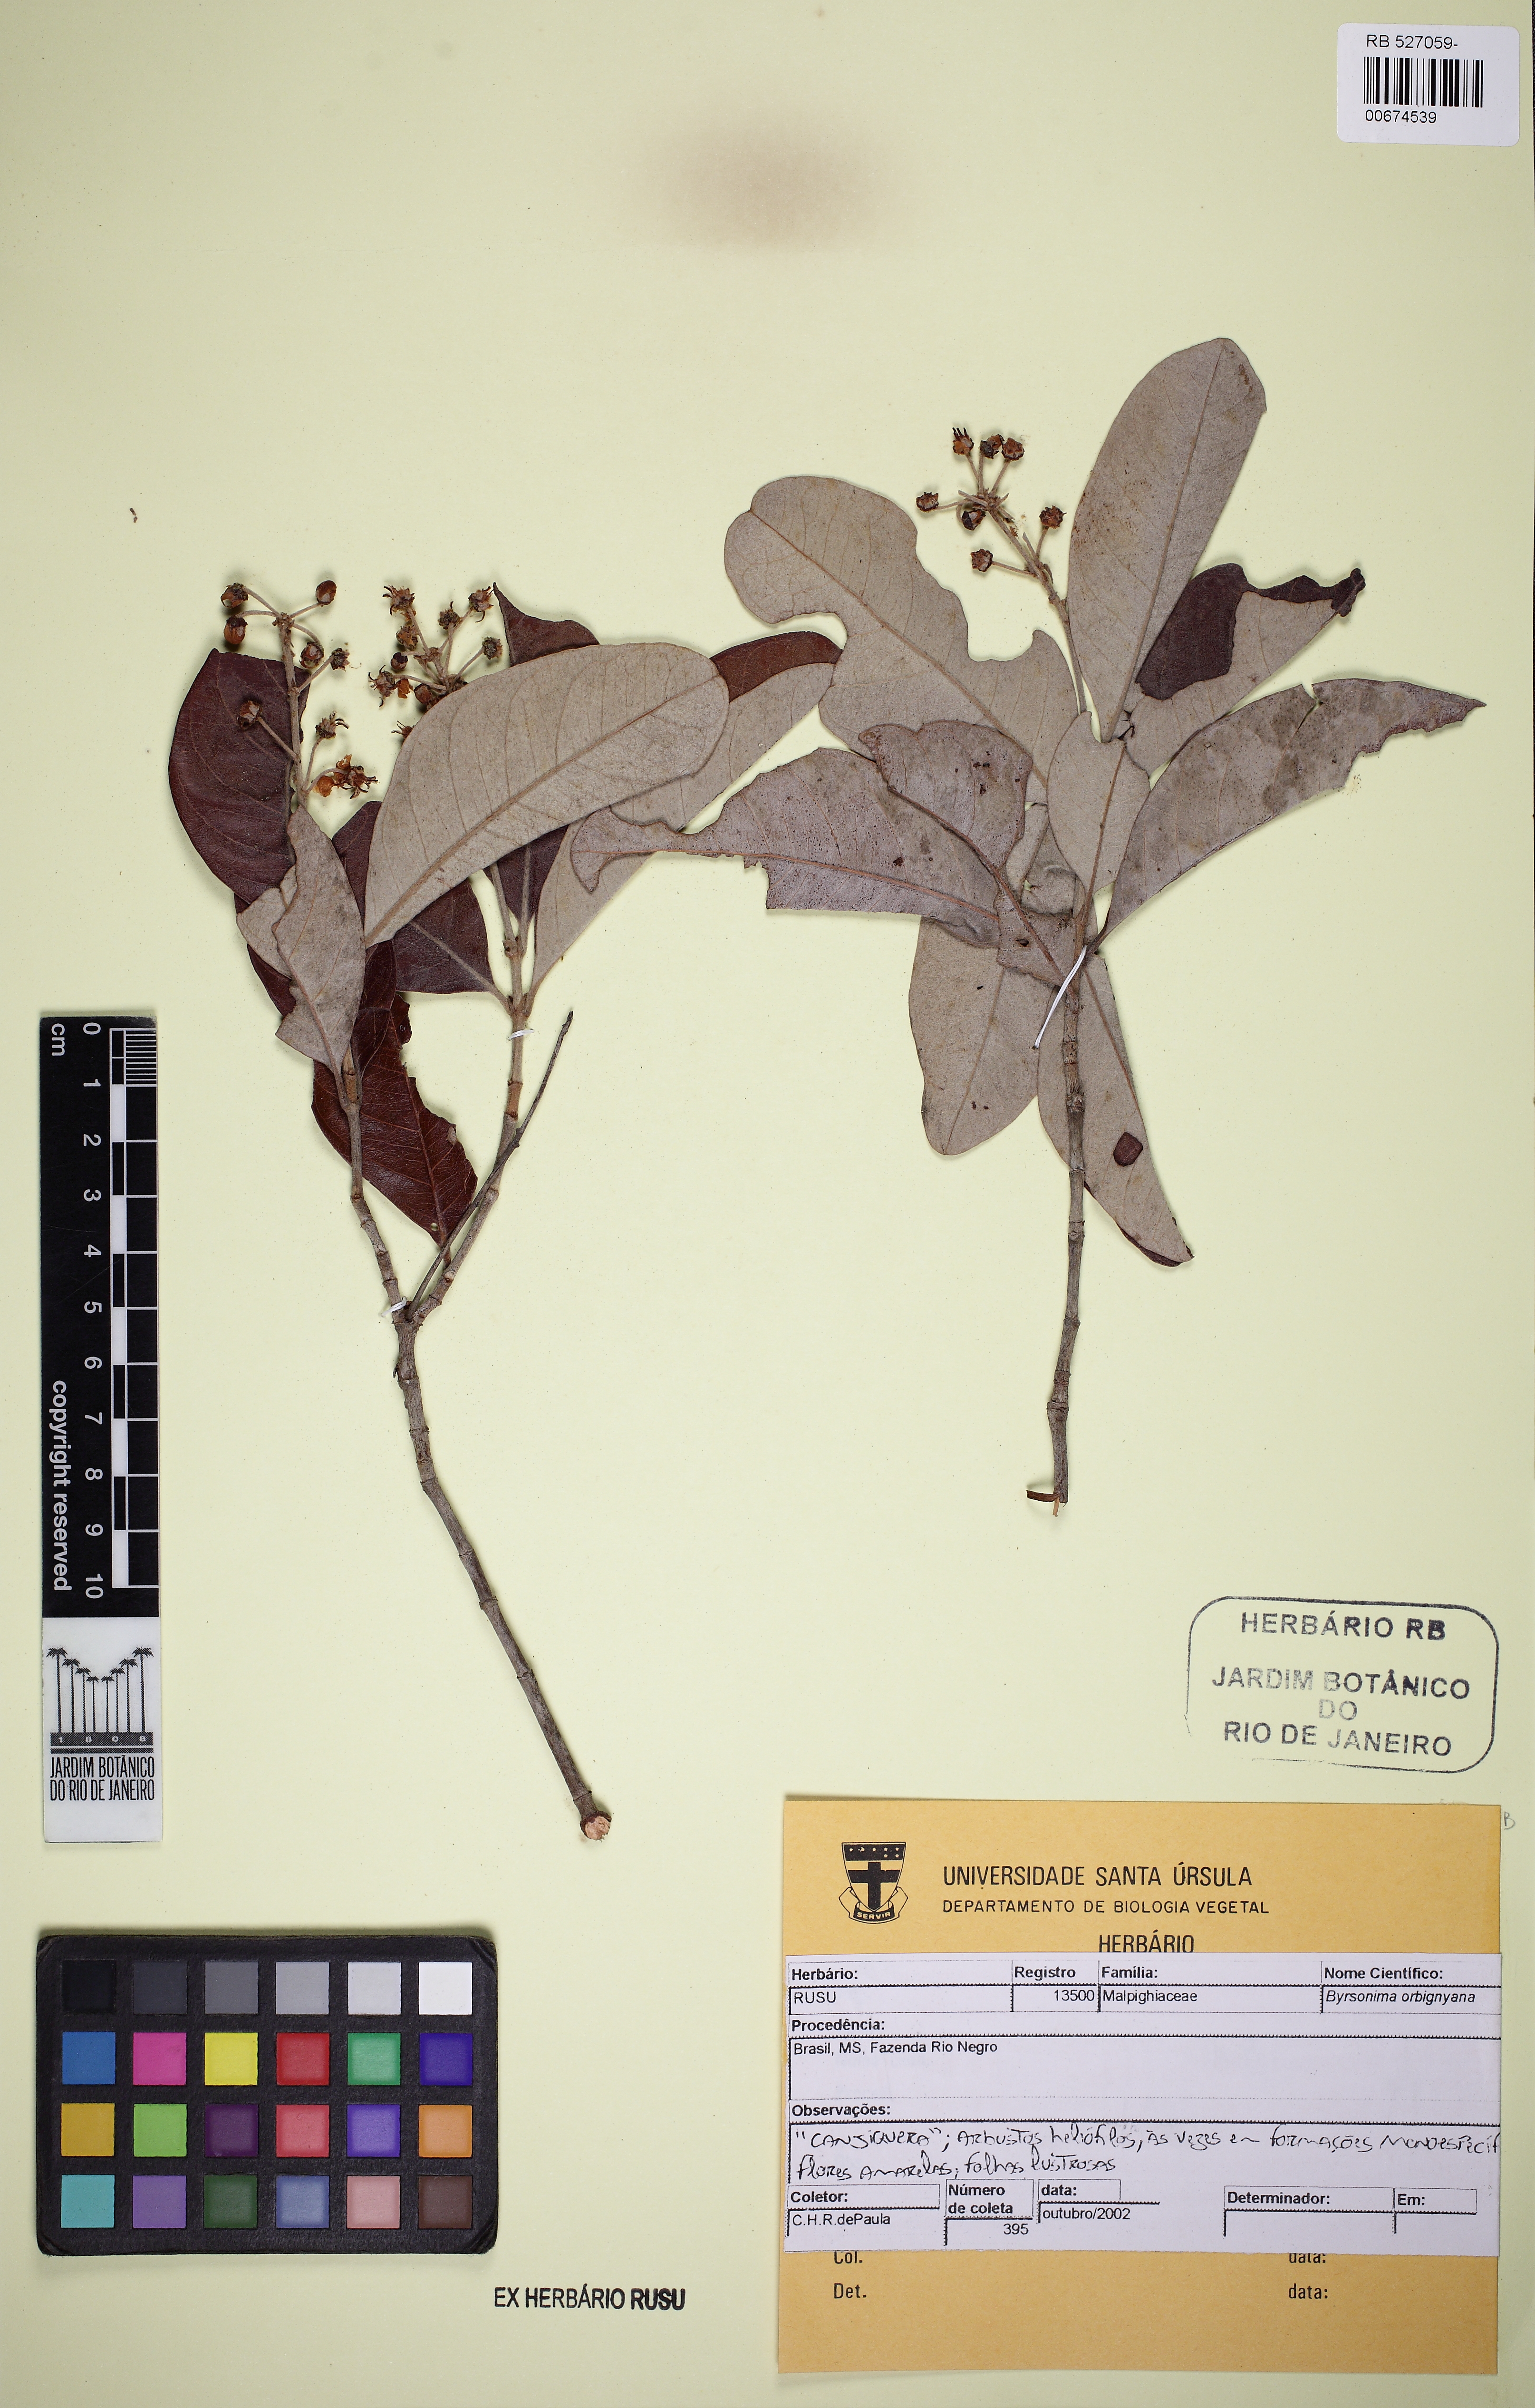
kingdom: Plantae
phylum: Tracheophyta
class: Magnoliopsida
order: Malpighiales
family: Malpighiaceae
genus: Byrsonima
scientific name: Byrsonima cydoniifolia
